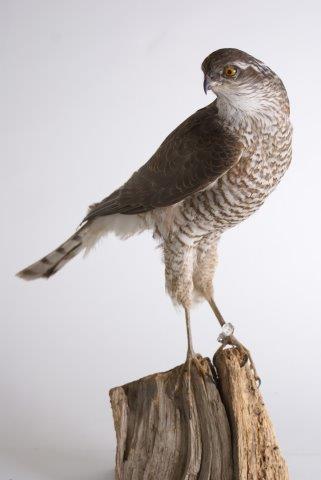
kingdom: Animalia
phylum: Chordata
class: Aves
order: Accipitriformes
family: Accipitridae
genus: Accipiter
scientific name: Accipiter nisus
